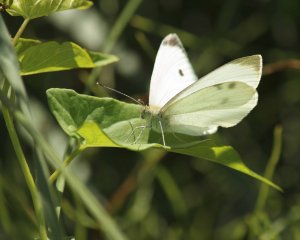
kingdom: Animalia
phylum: Arthropoda
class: Insecta
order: Lepidoptera
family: Pieridae
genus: Pieris
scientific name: Pieris rapae
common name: Cabbage White
